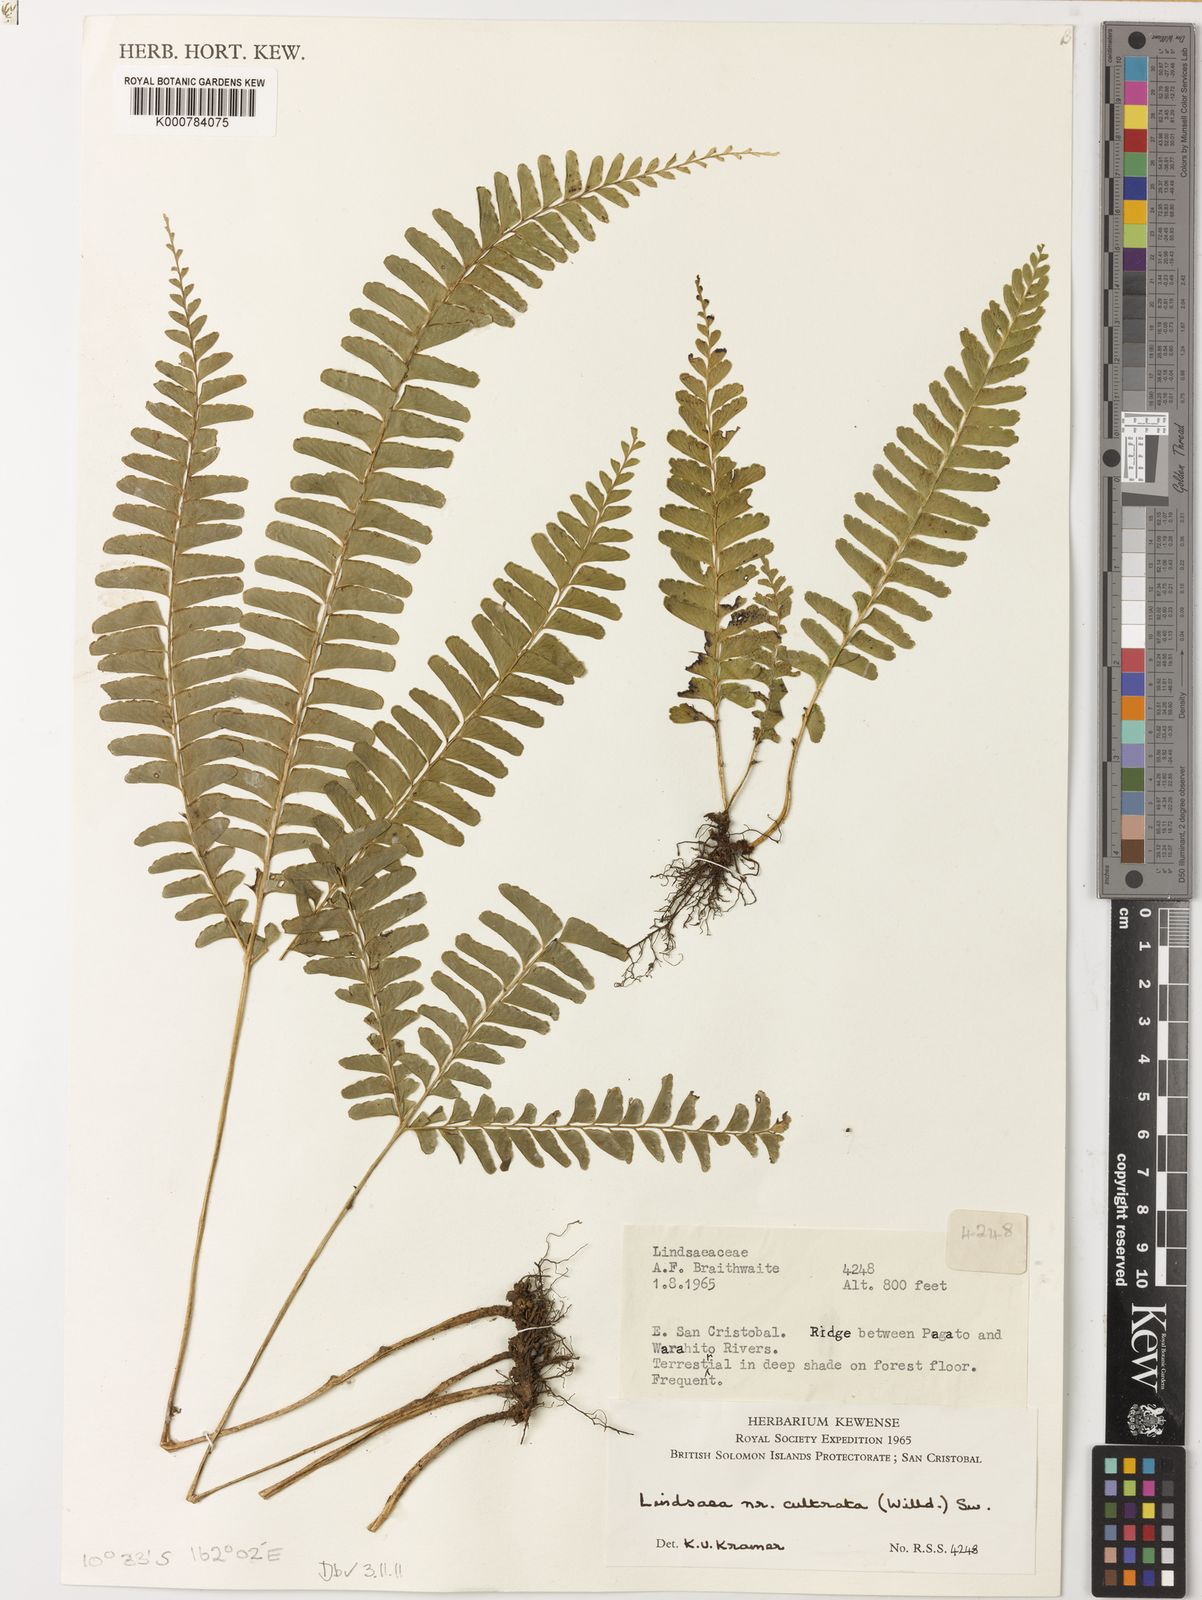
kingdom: Plantae
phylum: Tracheophyta
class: Polypodiopsida
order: Polypodiales
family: Lindsaeaceae
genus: Lindsaea
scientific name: Lindsaea cultrata
